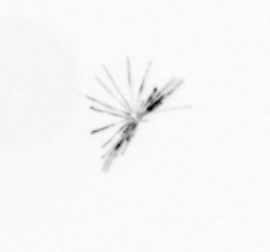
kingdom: Chromista
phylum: Ochrophyta
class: Bacillariophyceae
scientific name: Bacillariophyceae
